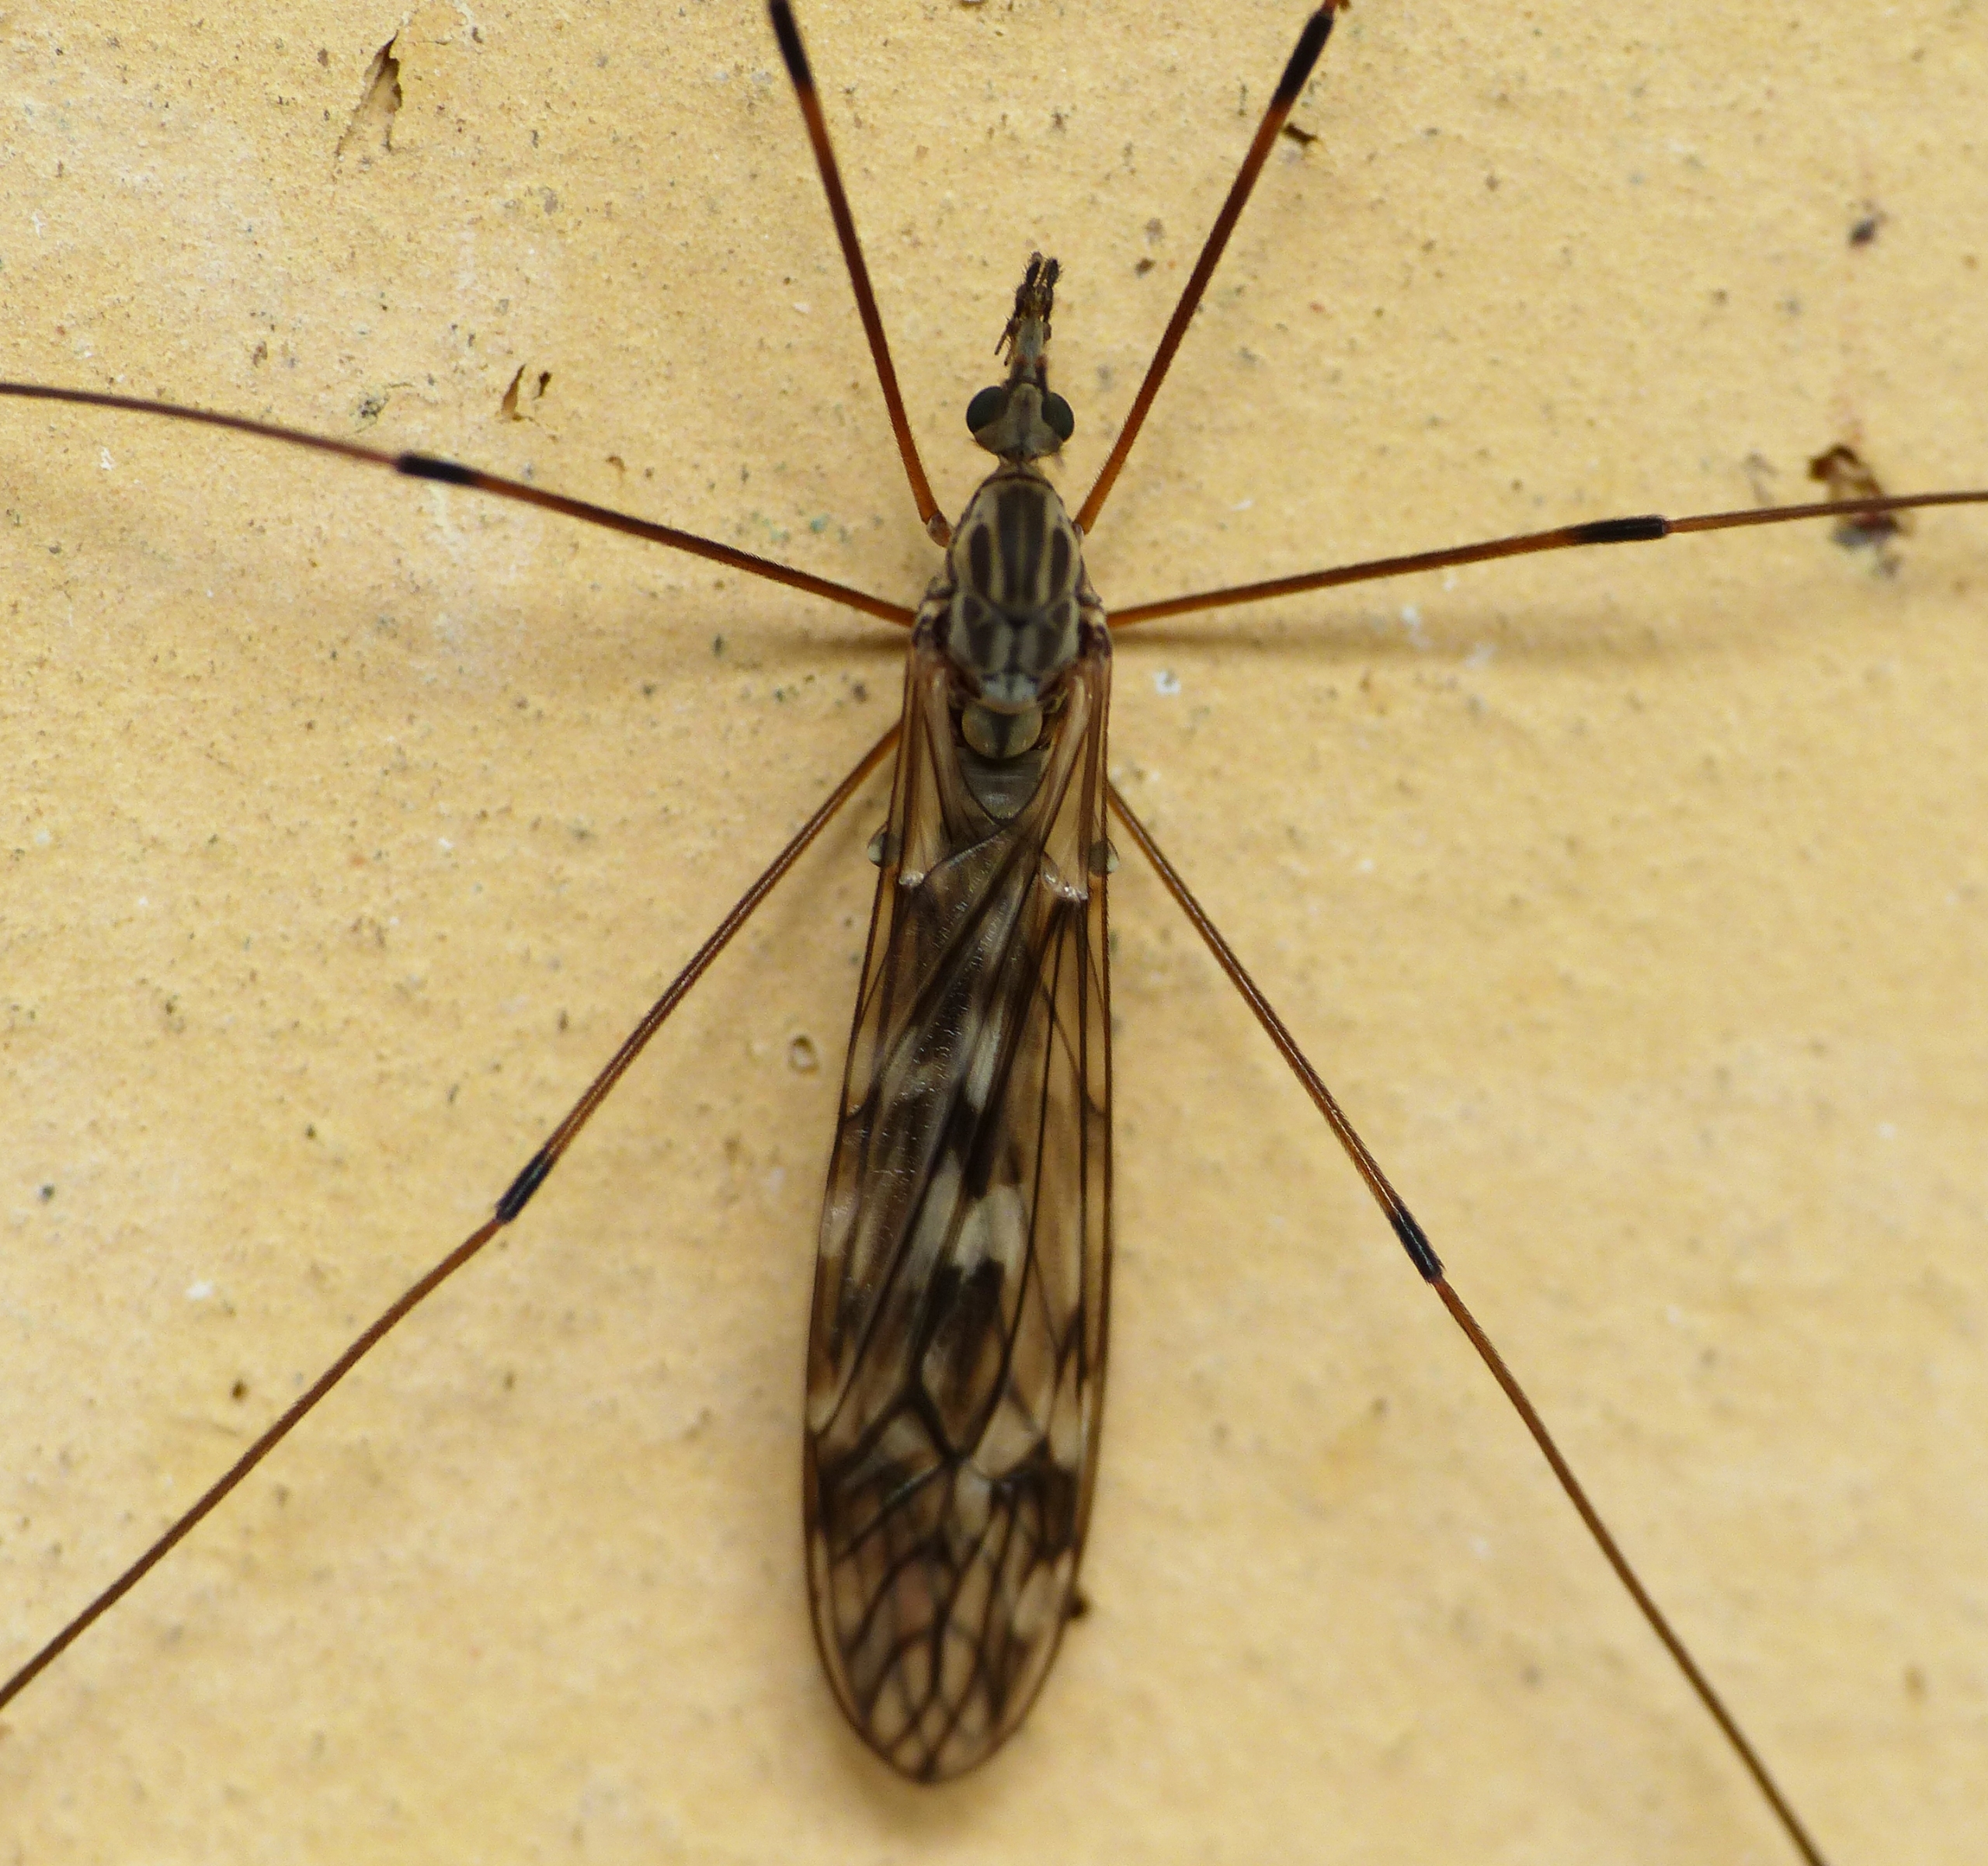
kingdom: Animalia
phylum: Arthropoda
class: Insecta
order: Diptera
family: Tipulidae
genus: Tipula
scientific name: Tipula confusa
